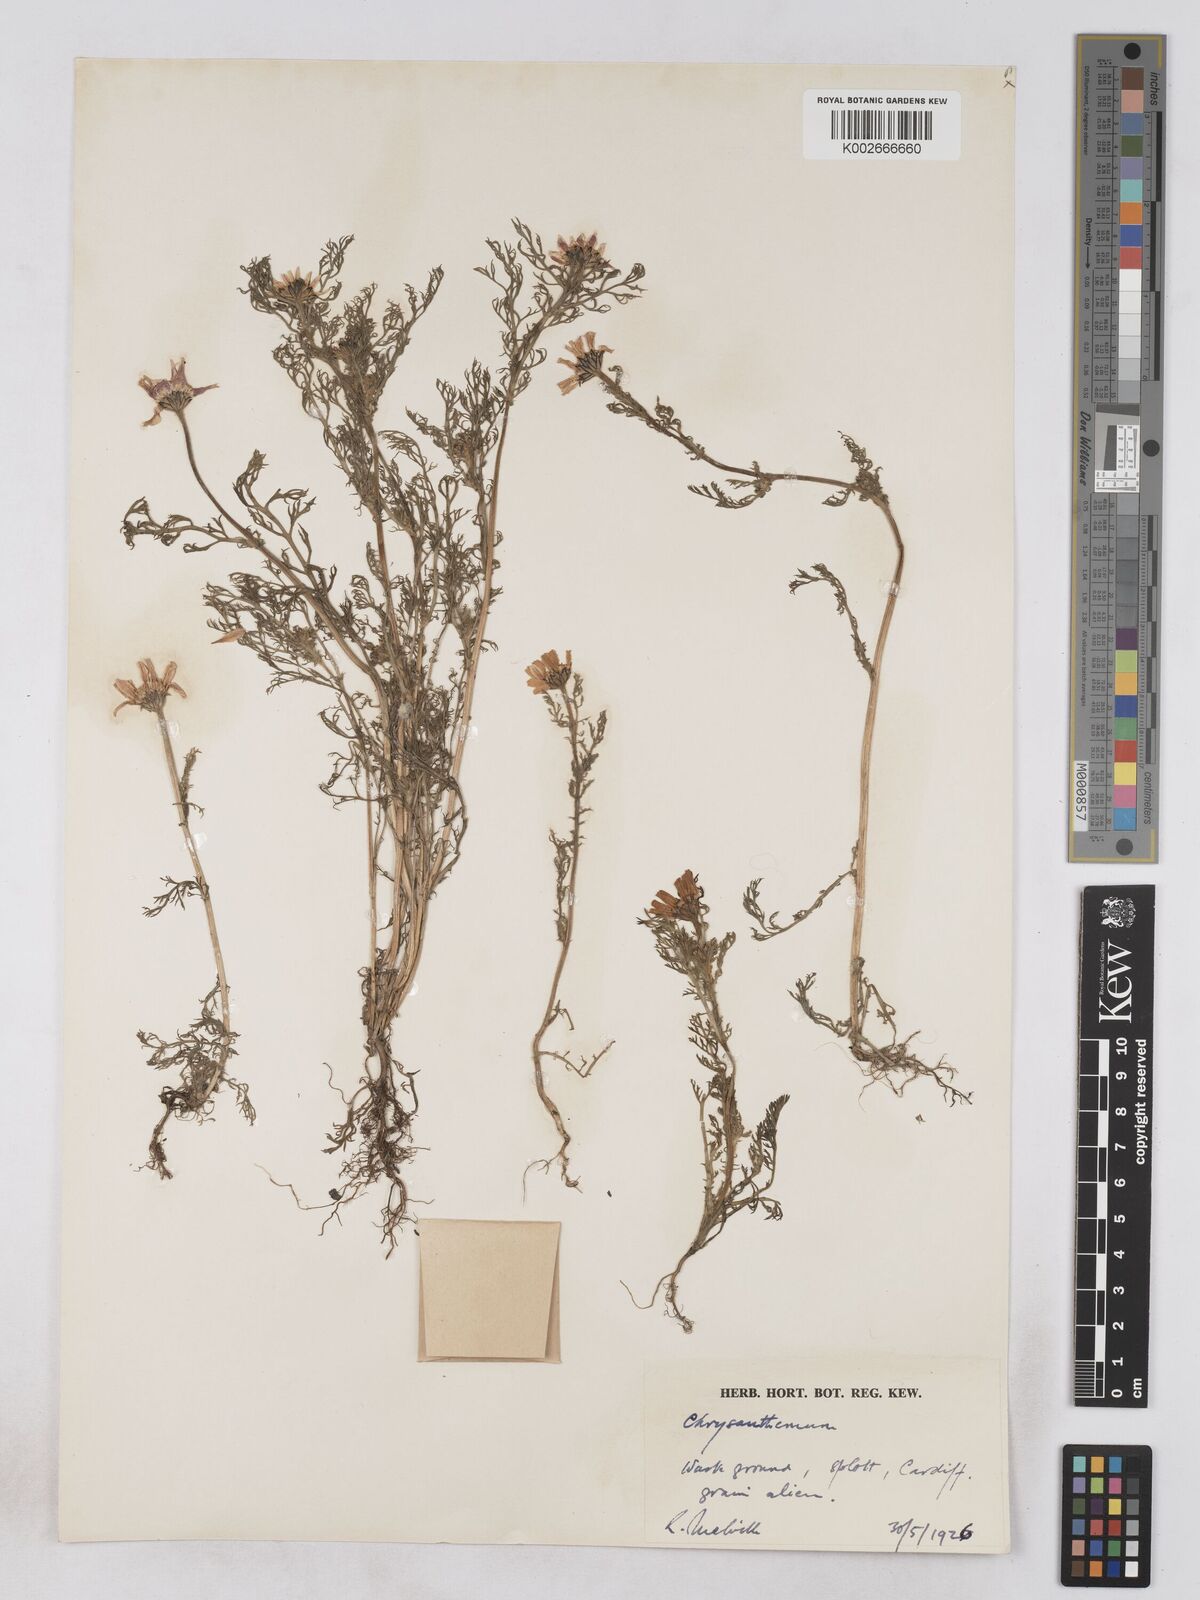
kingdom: Plantae
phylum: Tracheophyta
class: Magnoliopsida
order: Asterales
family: Asteraceae
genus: Glebionis
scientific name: Glebionis coronaria
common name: Crowndaisy
